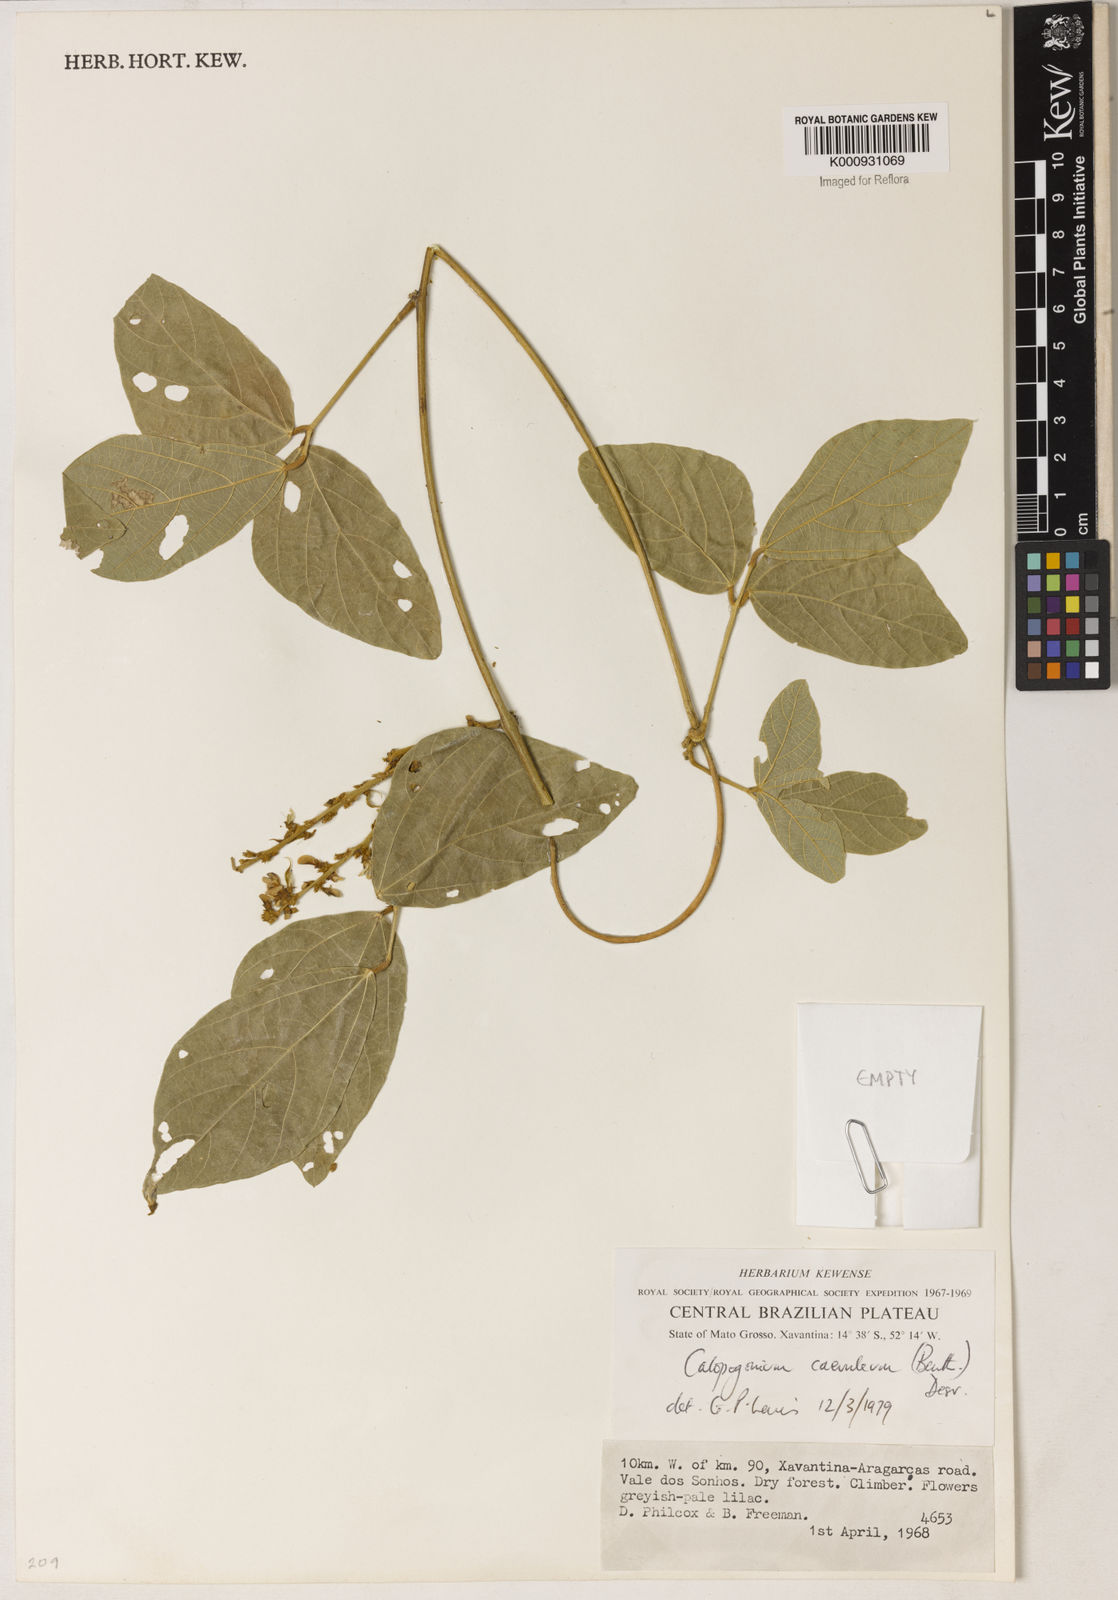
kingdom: Plantae
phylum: Tracheophyta
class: Magnoliopsida
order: Fabales
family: Fabaceae
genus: Calopogonium
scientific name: Calopogonium caeruleum
